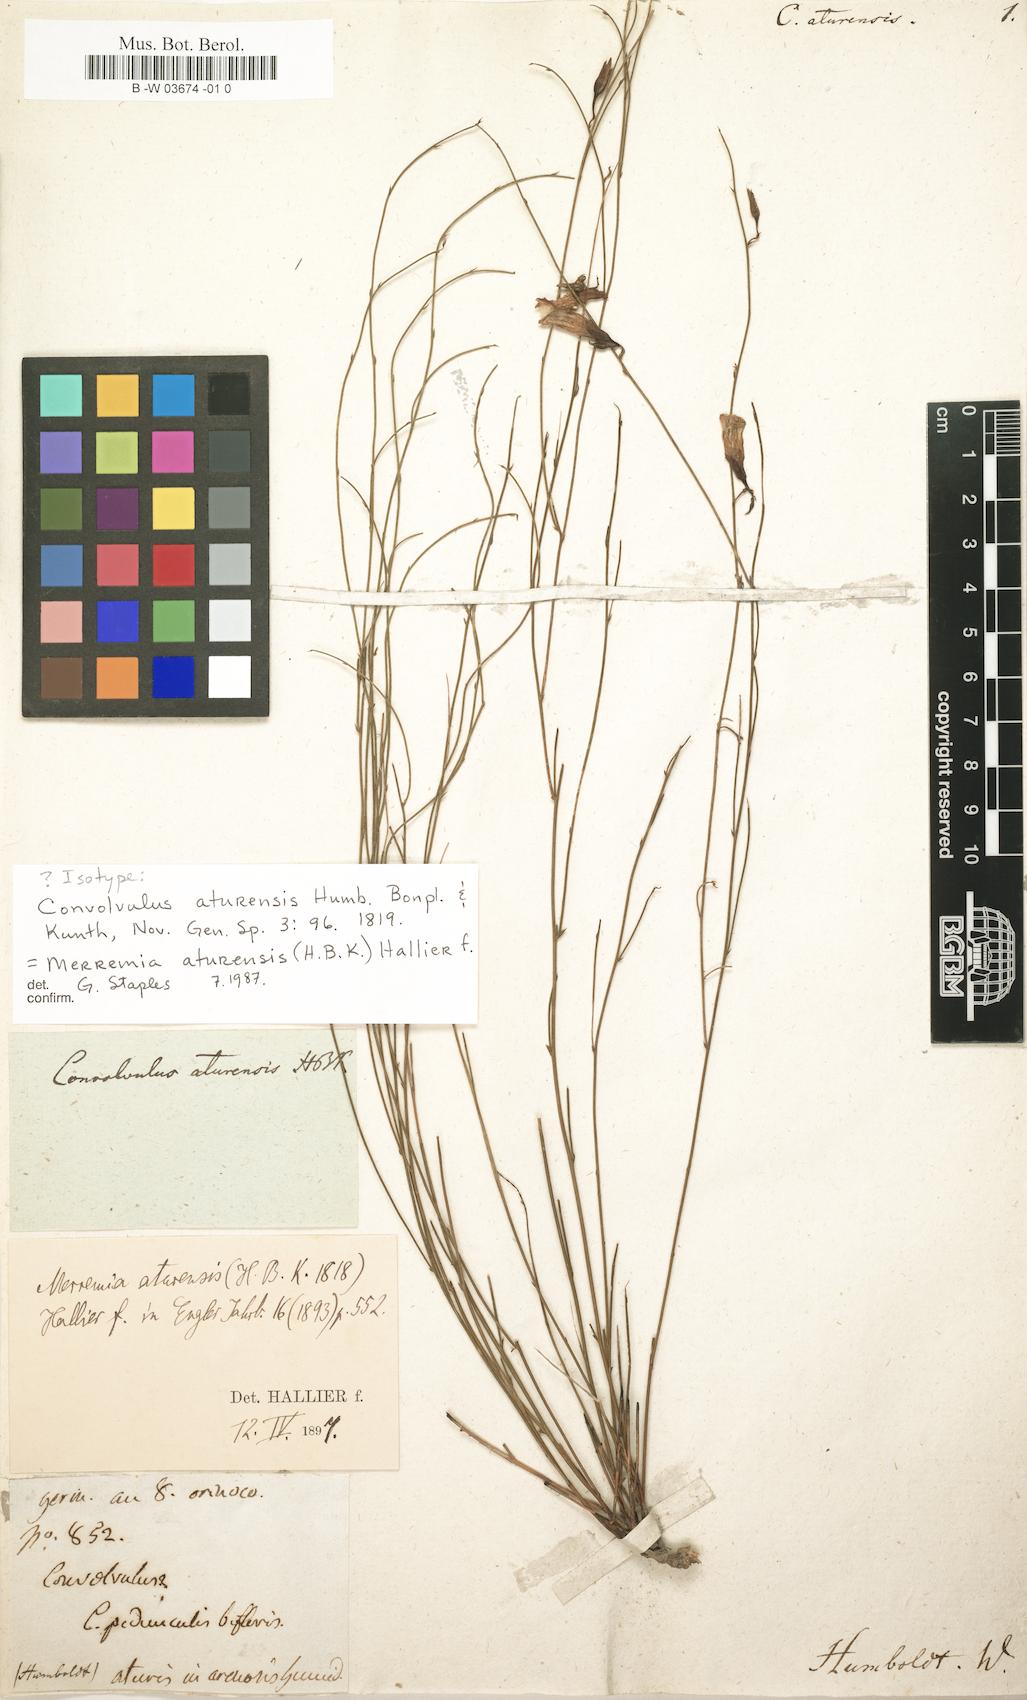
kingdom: Plantae
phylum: Tracheophyta
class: Magnoliopsida
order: Solanales
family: Convolvulaceae
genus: Distimake
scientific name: Distimake aturensis
